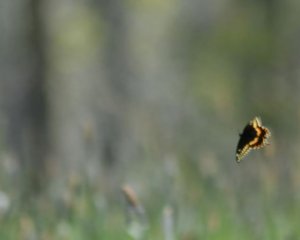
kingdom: Animalia
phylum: Arthropoda
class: Insecta
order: Lepidoptera
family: Papilionidae
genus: Papilio
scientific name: Papilio polyxenes
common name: Black Swallowtail
